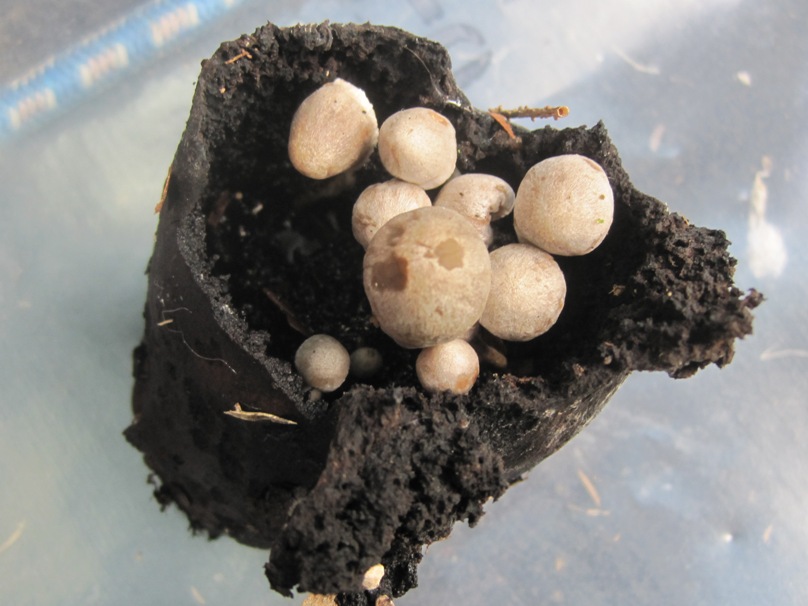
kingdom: Fungi
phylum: Basidiomycota
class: Agaricomycetes
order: Agaricales
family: Lyophyllaceae
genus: Asterophora
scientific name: Asterophora parasitica
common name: grå snyltehat
